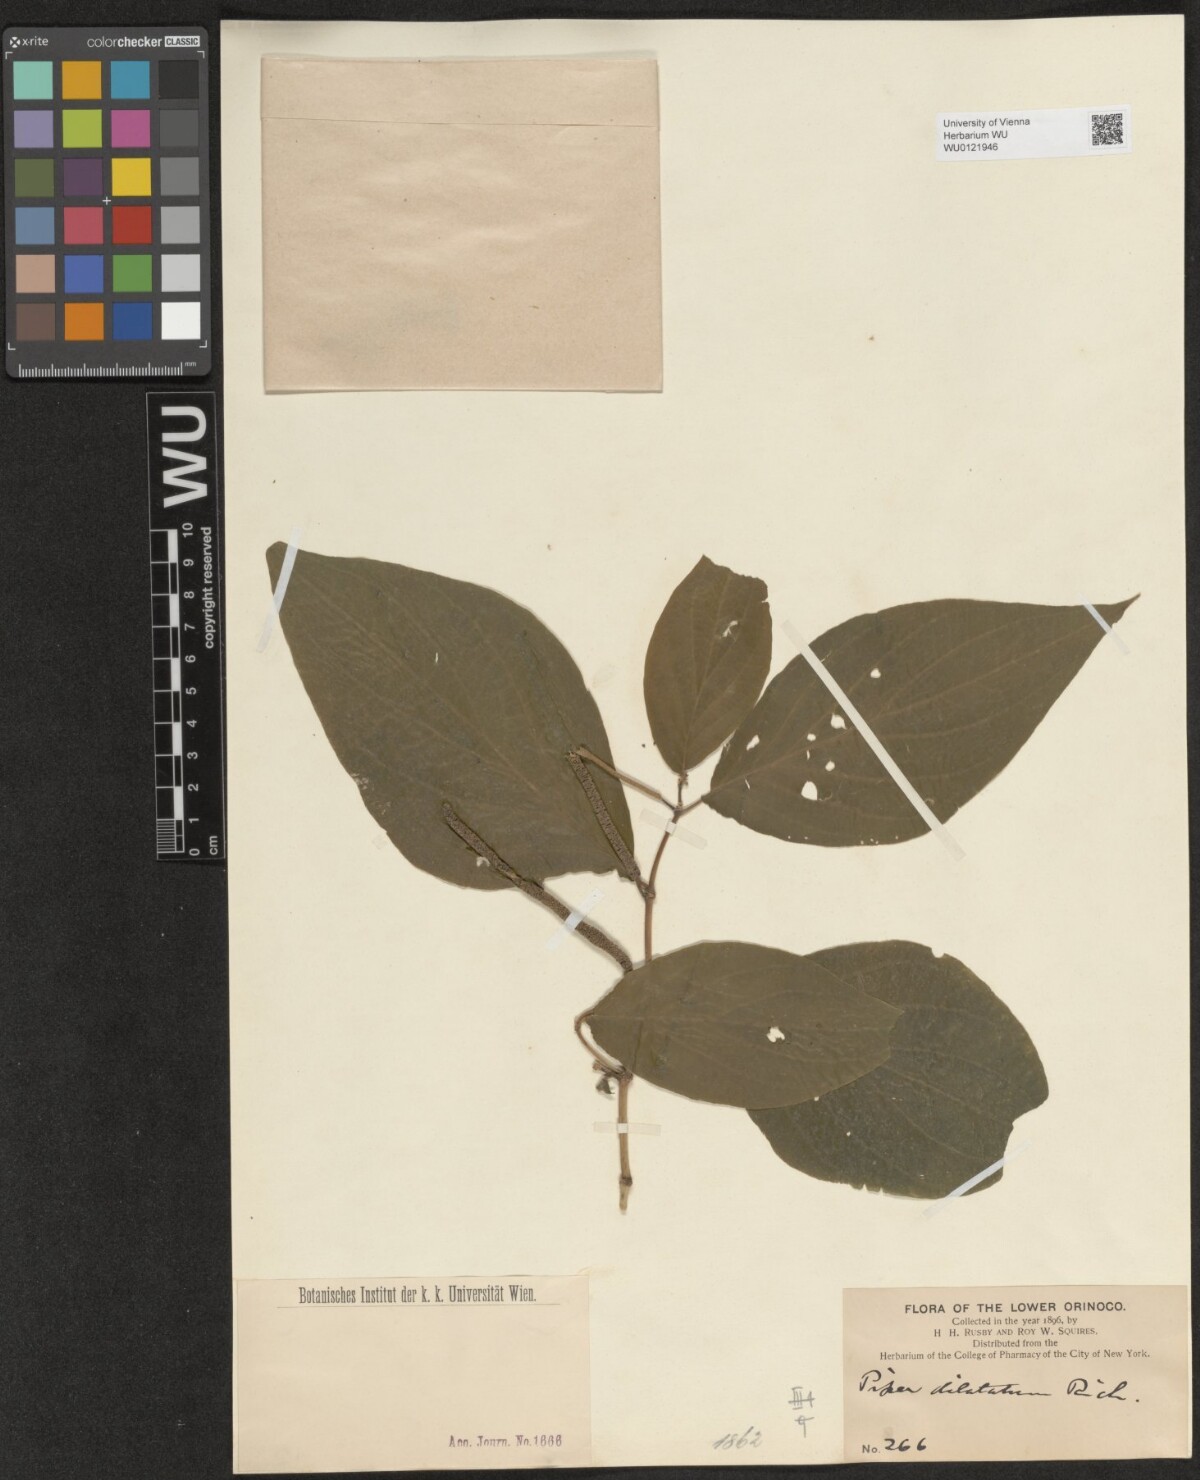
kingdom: Plantae
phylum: Tracheophyta
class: Magnoliopsida
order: Piperales
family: Piperaceae
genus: Piper
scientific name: Piper dilatatum
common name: Higuillo
